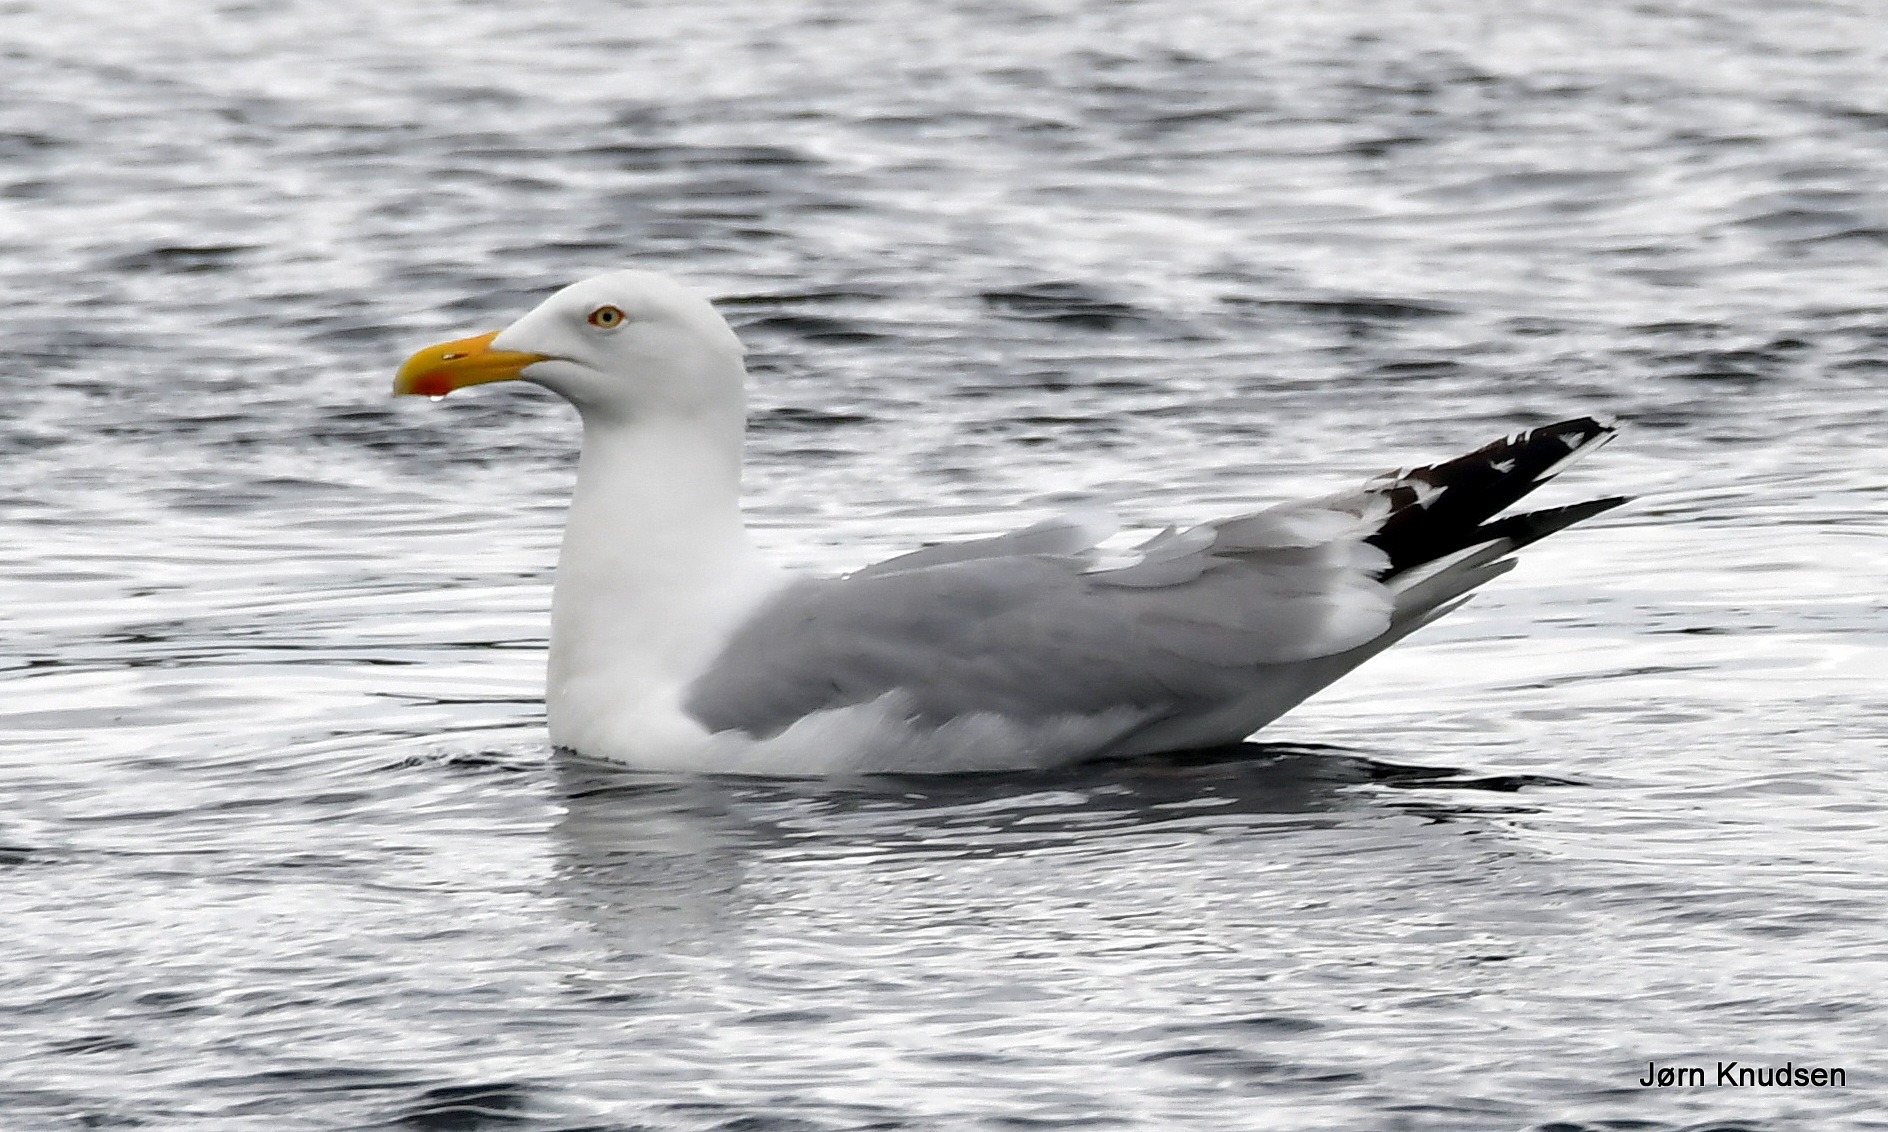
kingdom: Animalia
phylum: Chordata
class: Aves
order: Charadriiformes
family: Laridae
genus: Larus
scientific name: Larus argentatus
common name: Sølvmåge
